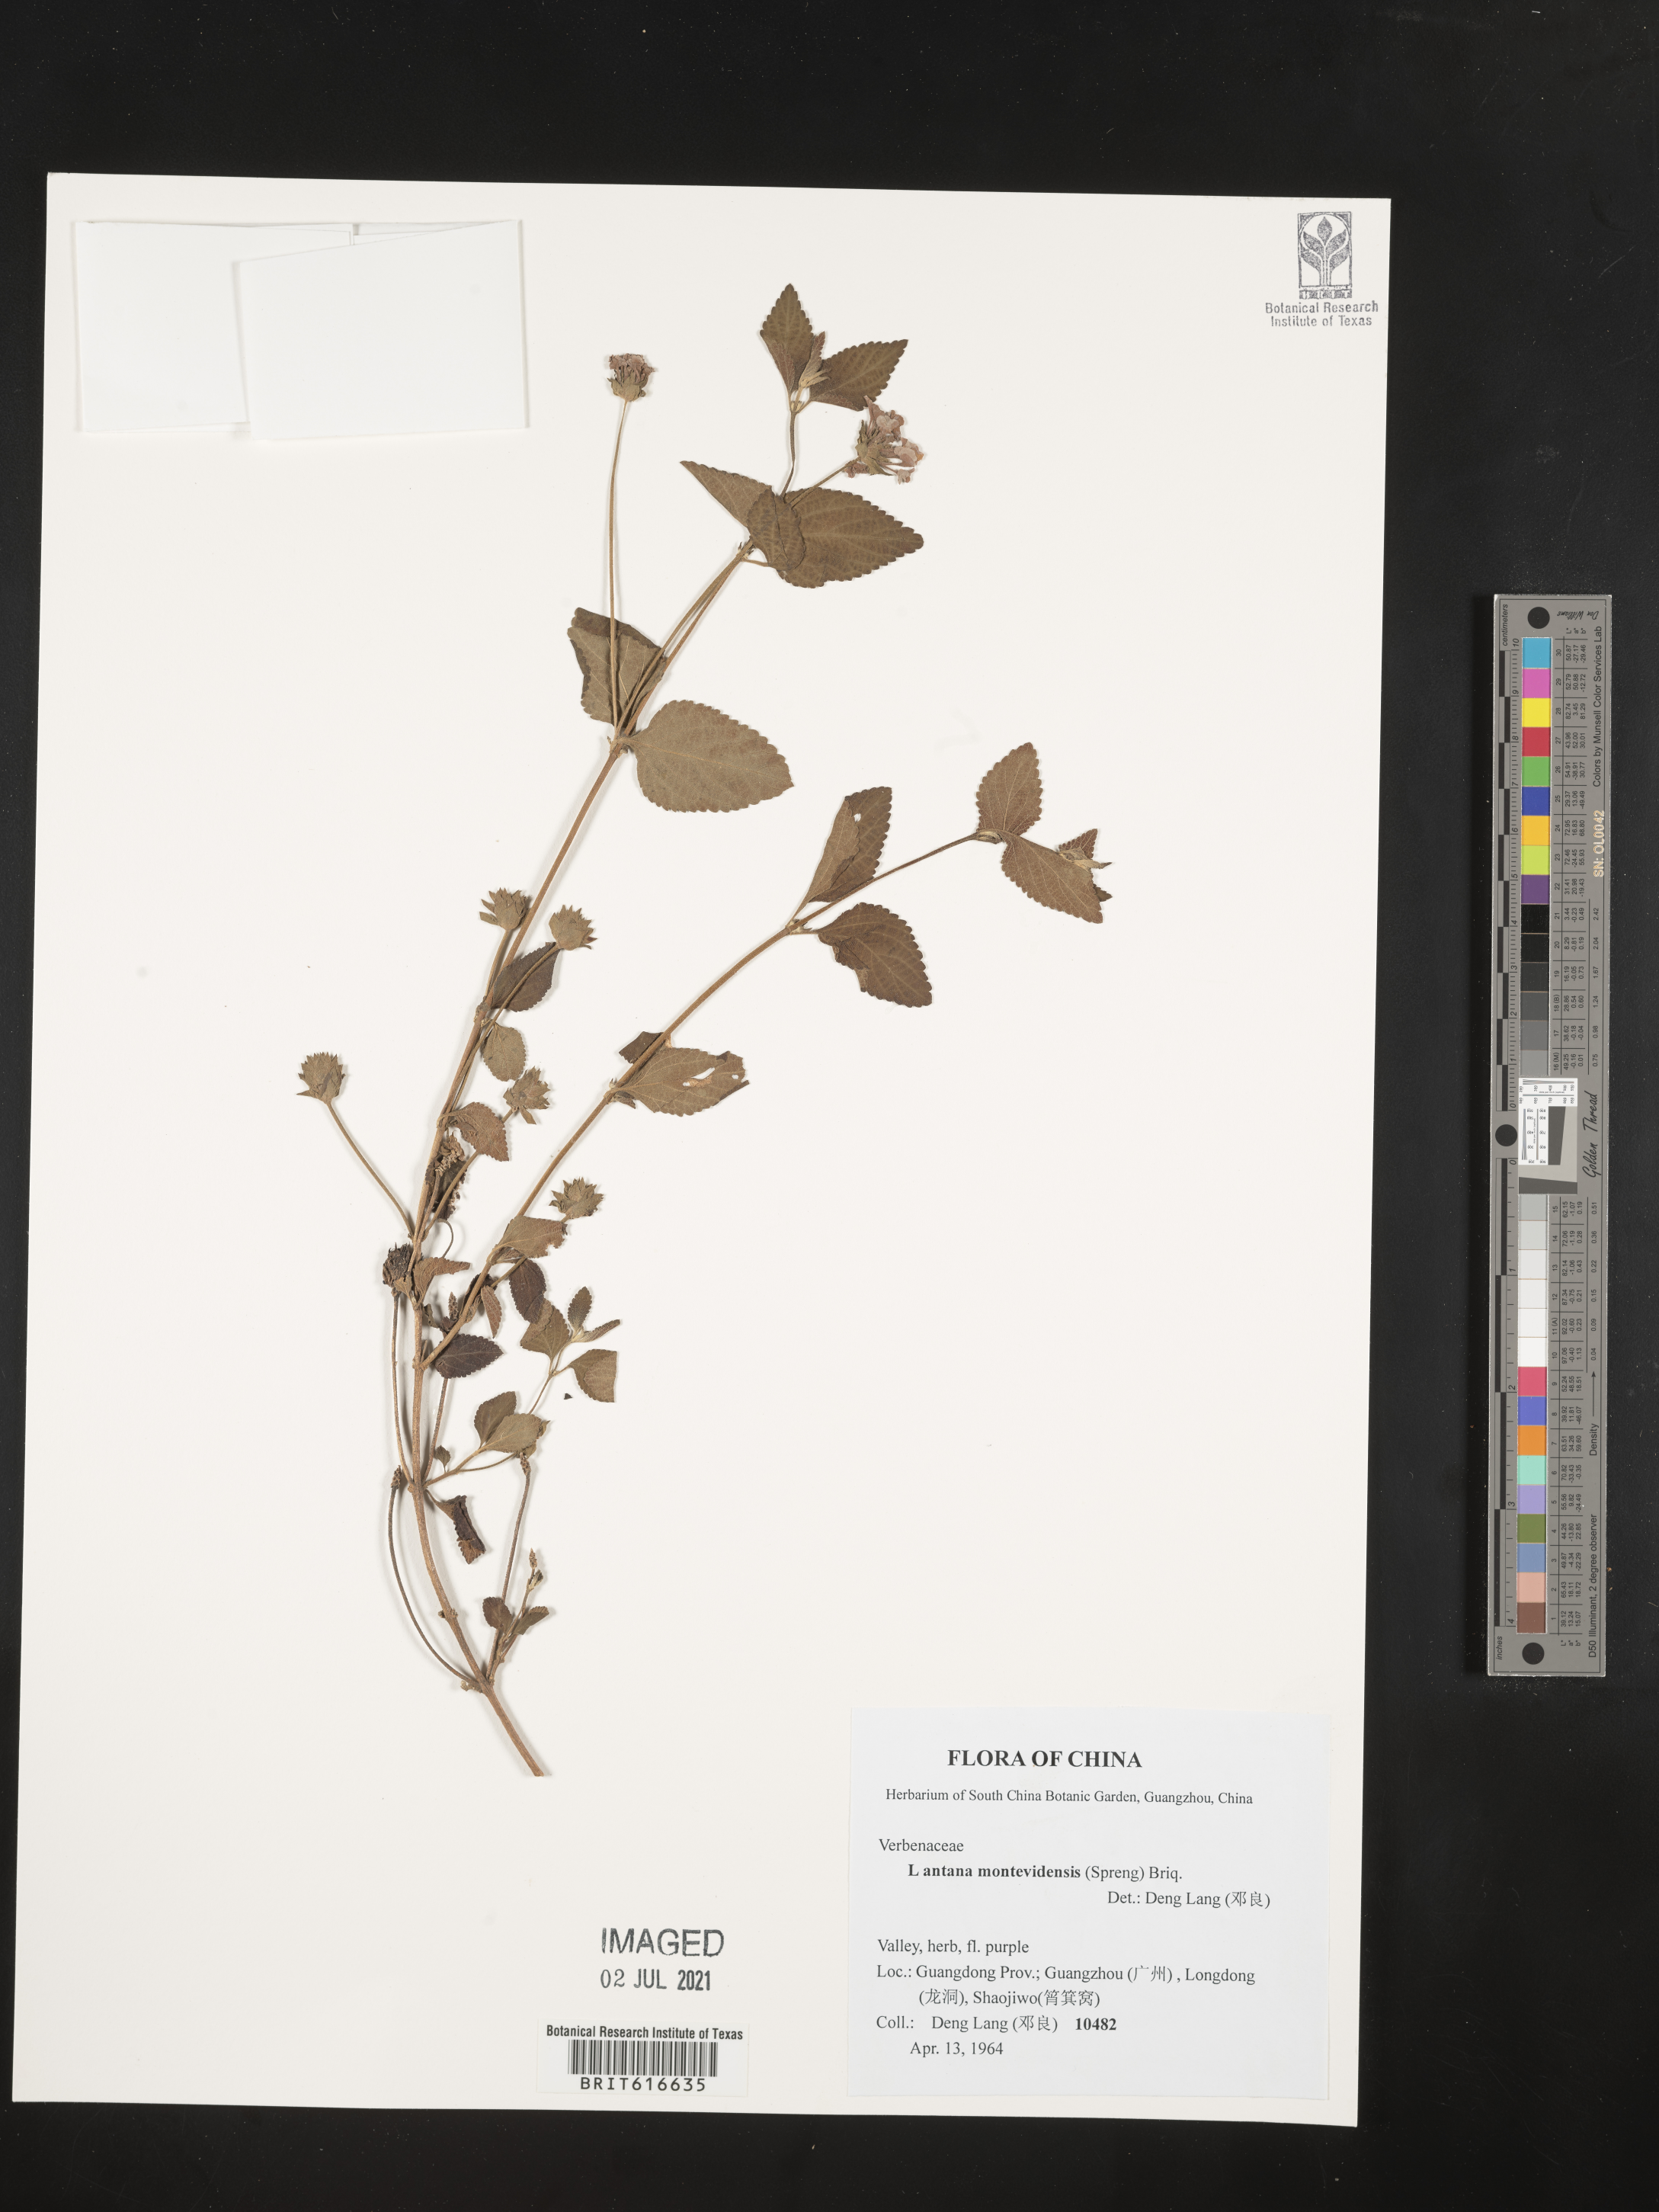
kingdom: Plantae
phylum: Tracheophyta
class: Magnoliopsida
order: Lamiales
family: Verbenaceae
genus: Lantana
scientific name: Lantana montevidensis
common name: Trailing shrubverbena
